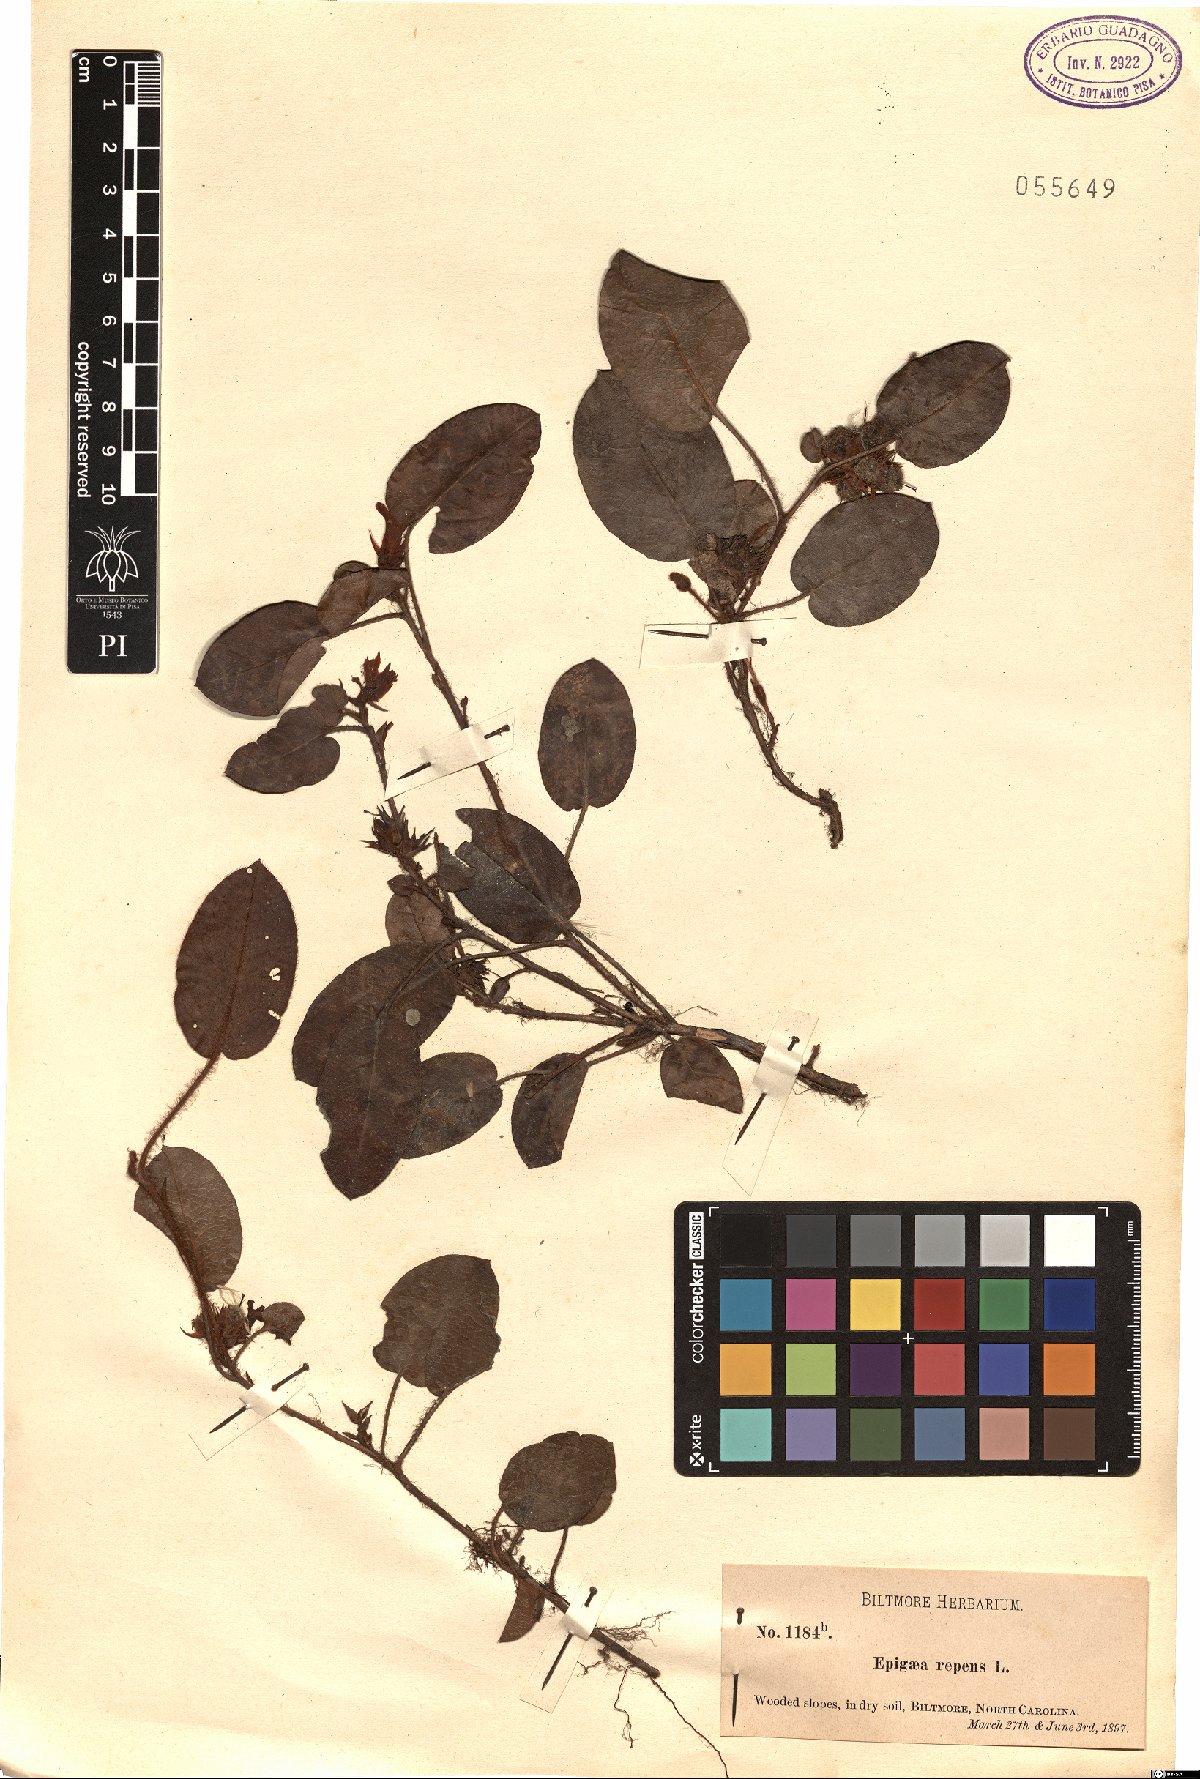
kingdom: Plantae
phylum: Tracheophyta
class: Magnoliopsida
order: Ericales
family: Ericaceae
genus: Epigaea
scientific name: Epigaea repens
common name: Gravelroot
